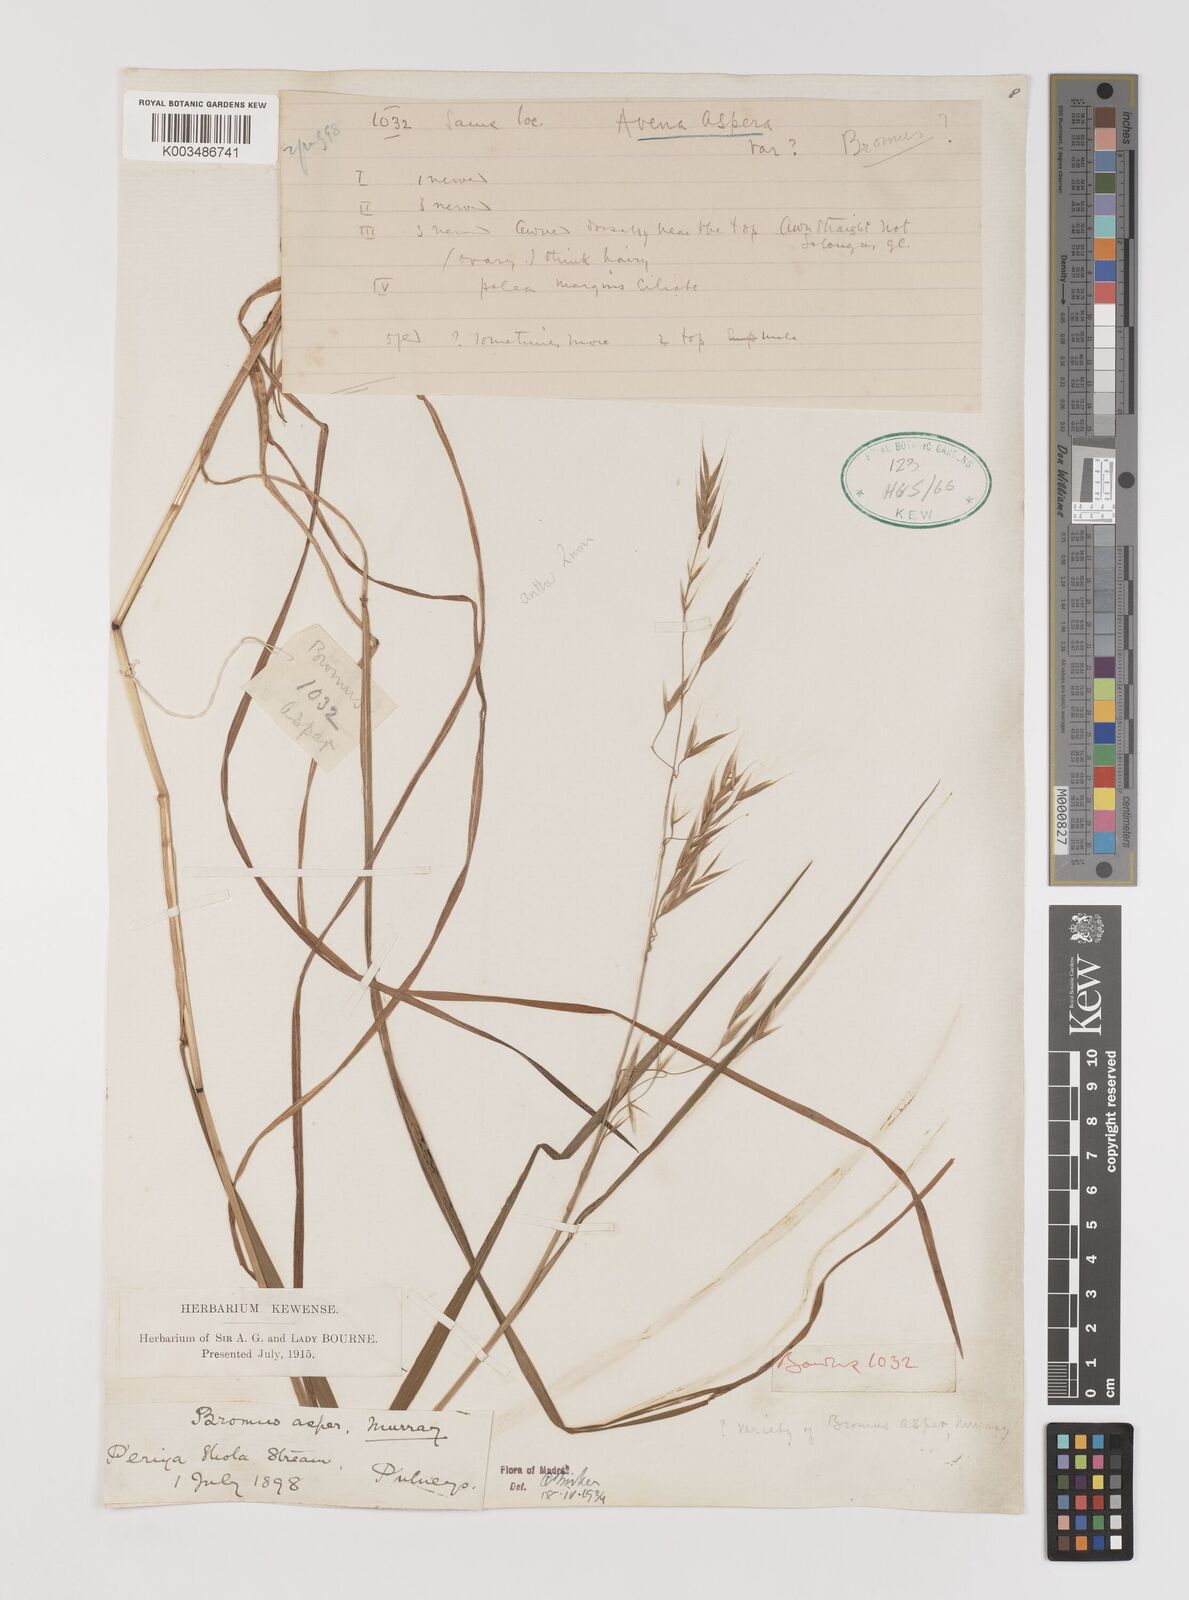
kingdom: Plantae
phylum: Tracheophyta
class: Liliopsida
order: Poales
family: Poaceae
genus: Brachypodium
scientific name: Brachypodium retusum
